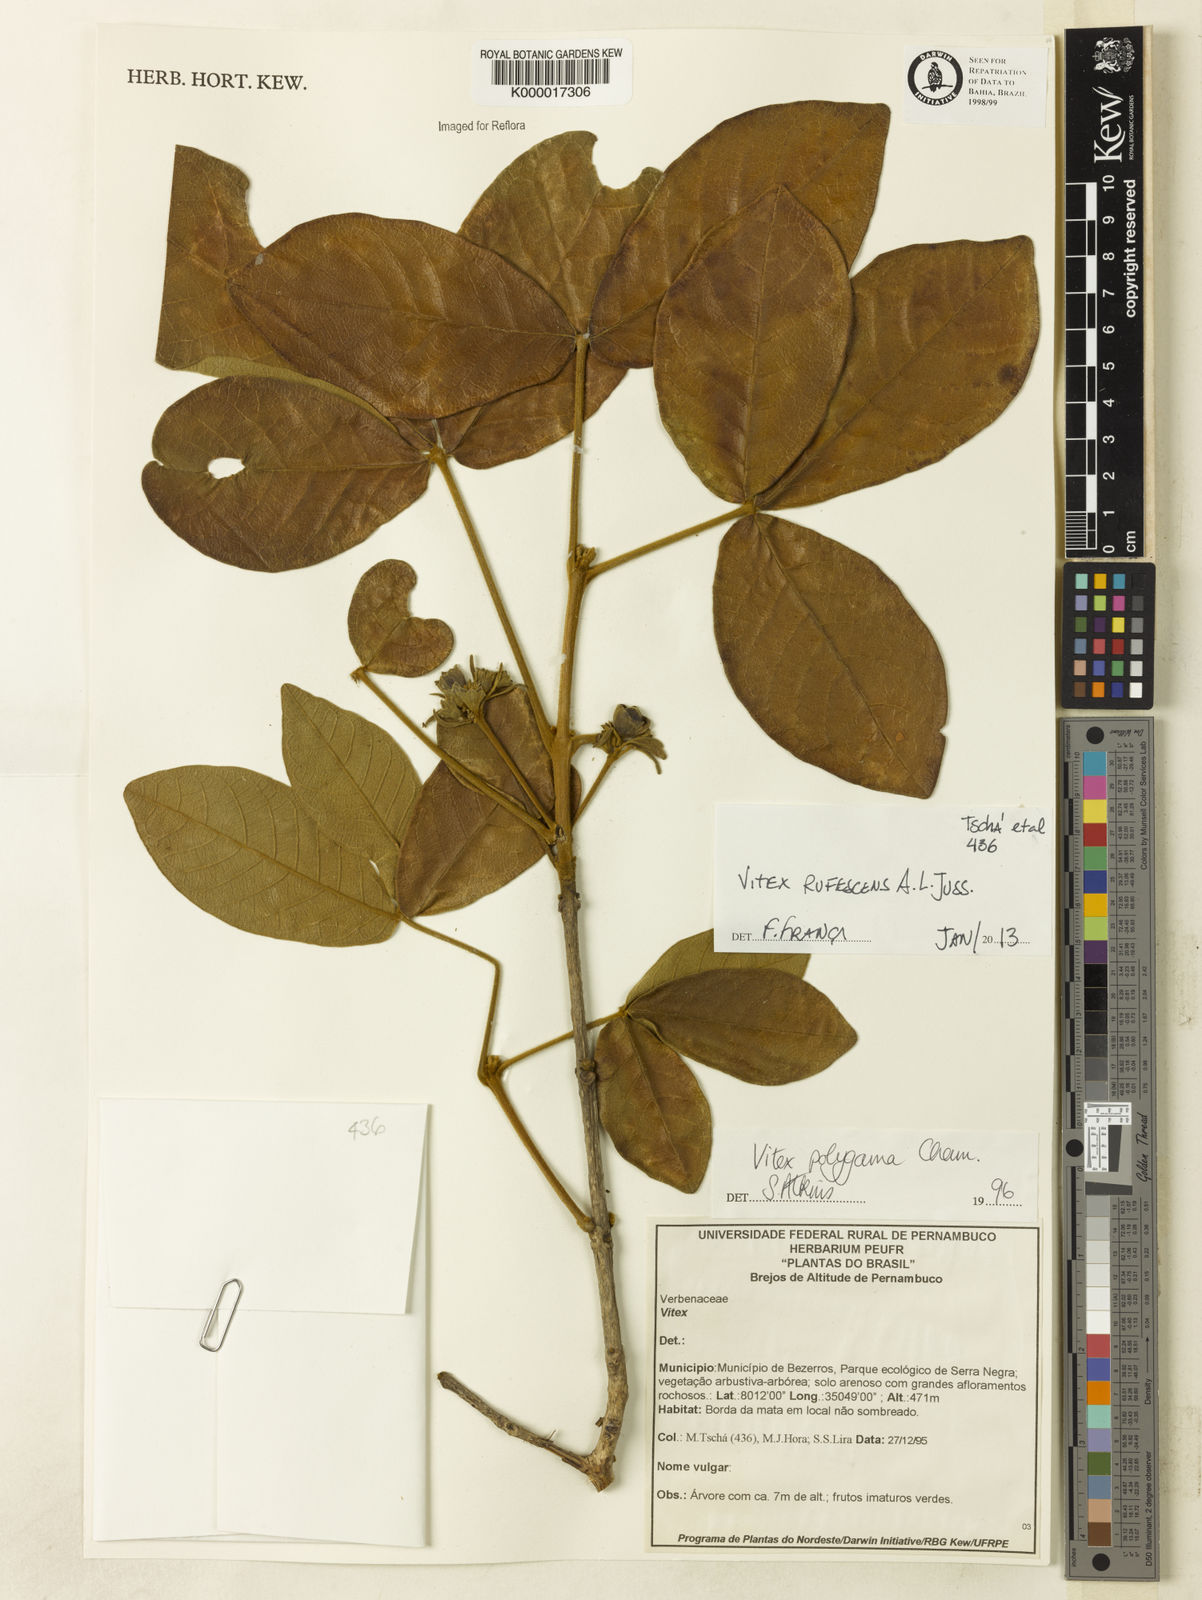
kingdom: Plantae
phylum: Tracheophyta
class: Magnoliopsida
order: Lamiales
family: Lamiaceae
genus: Vitex
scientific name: Vitex rufescens
